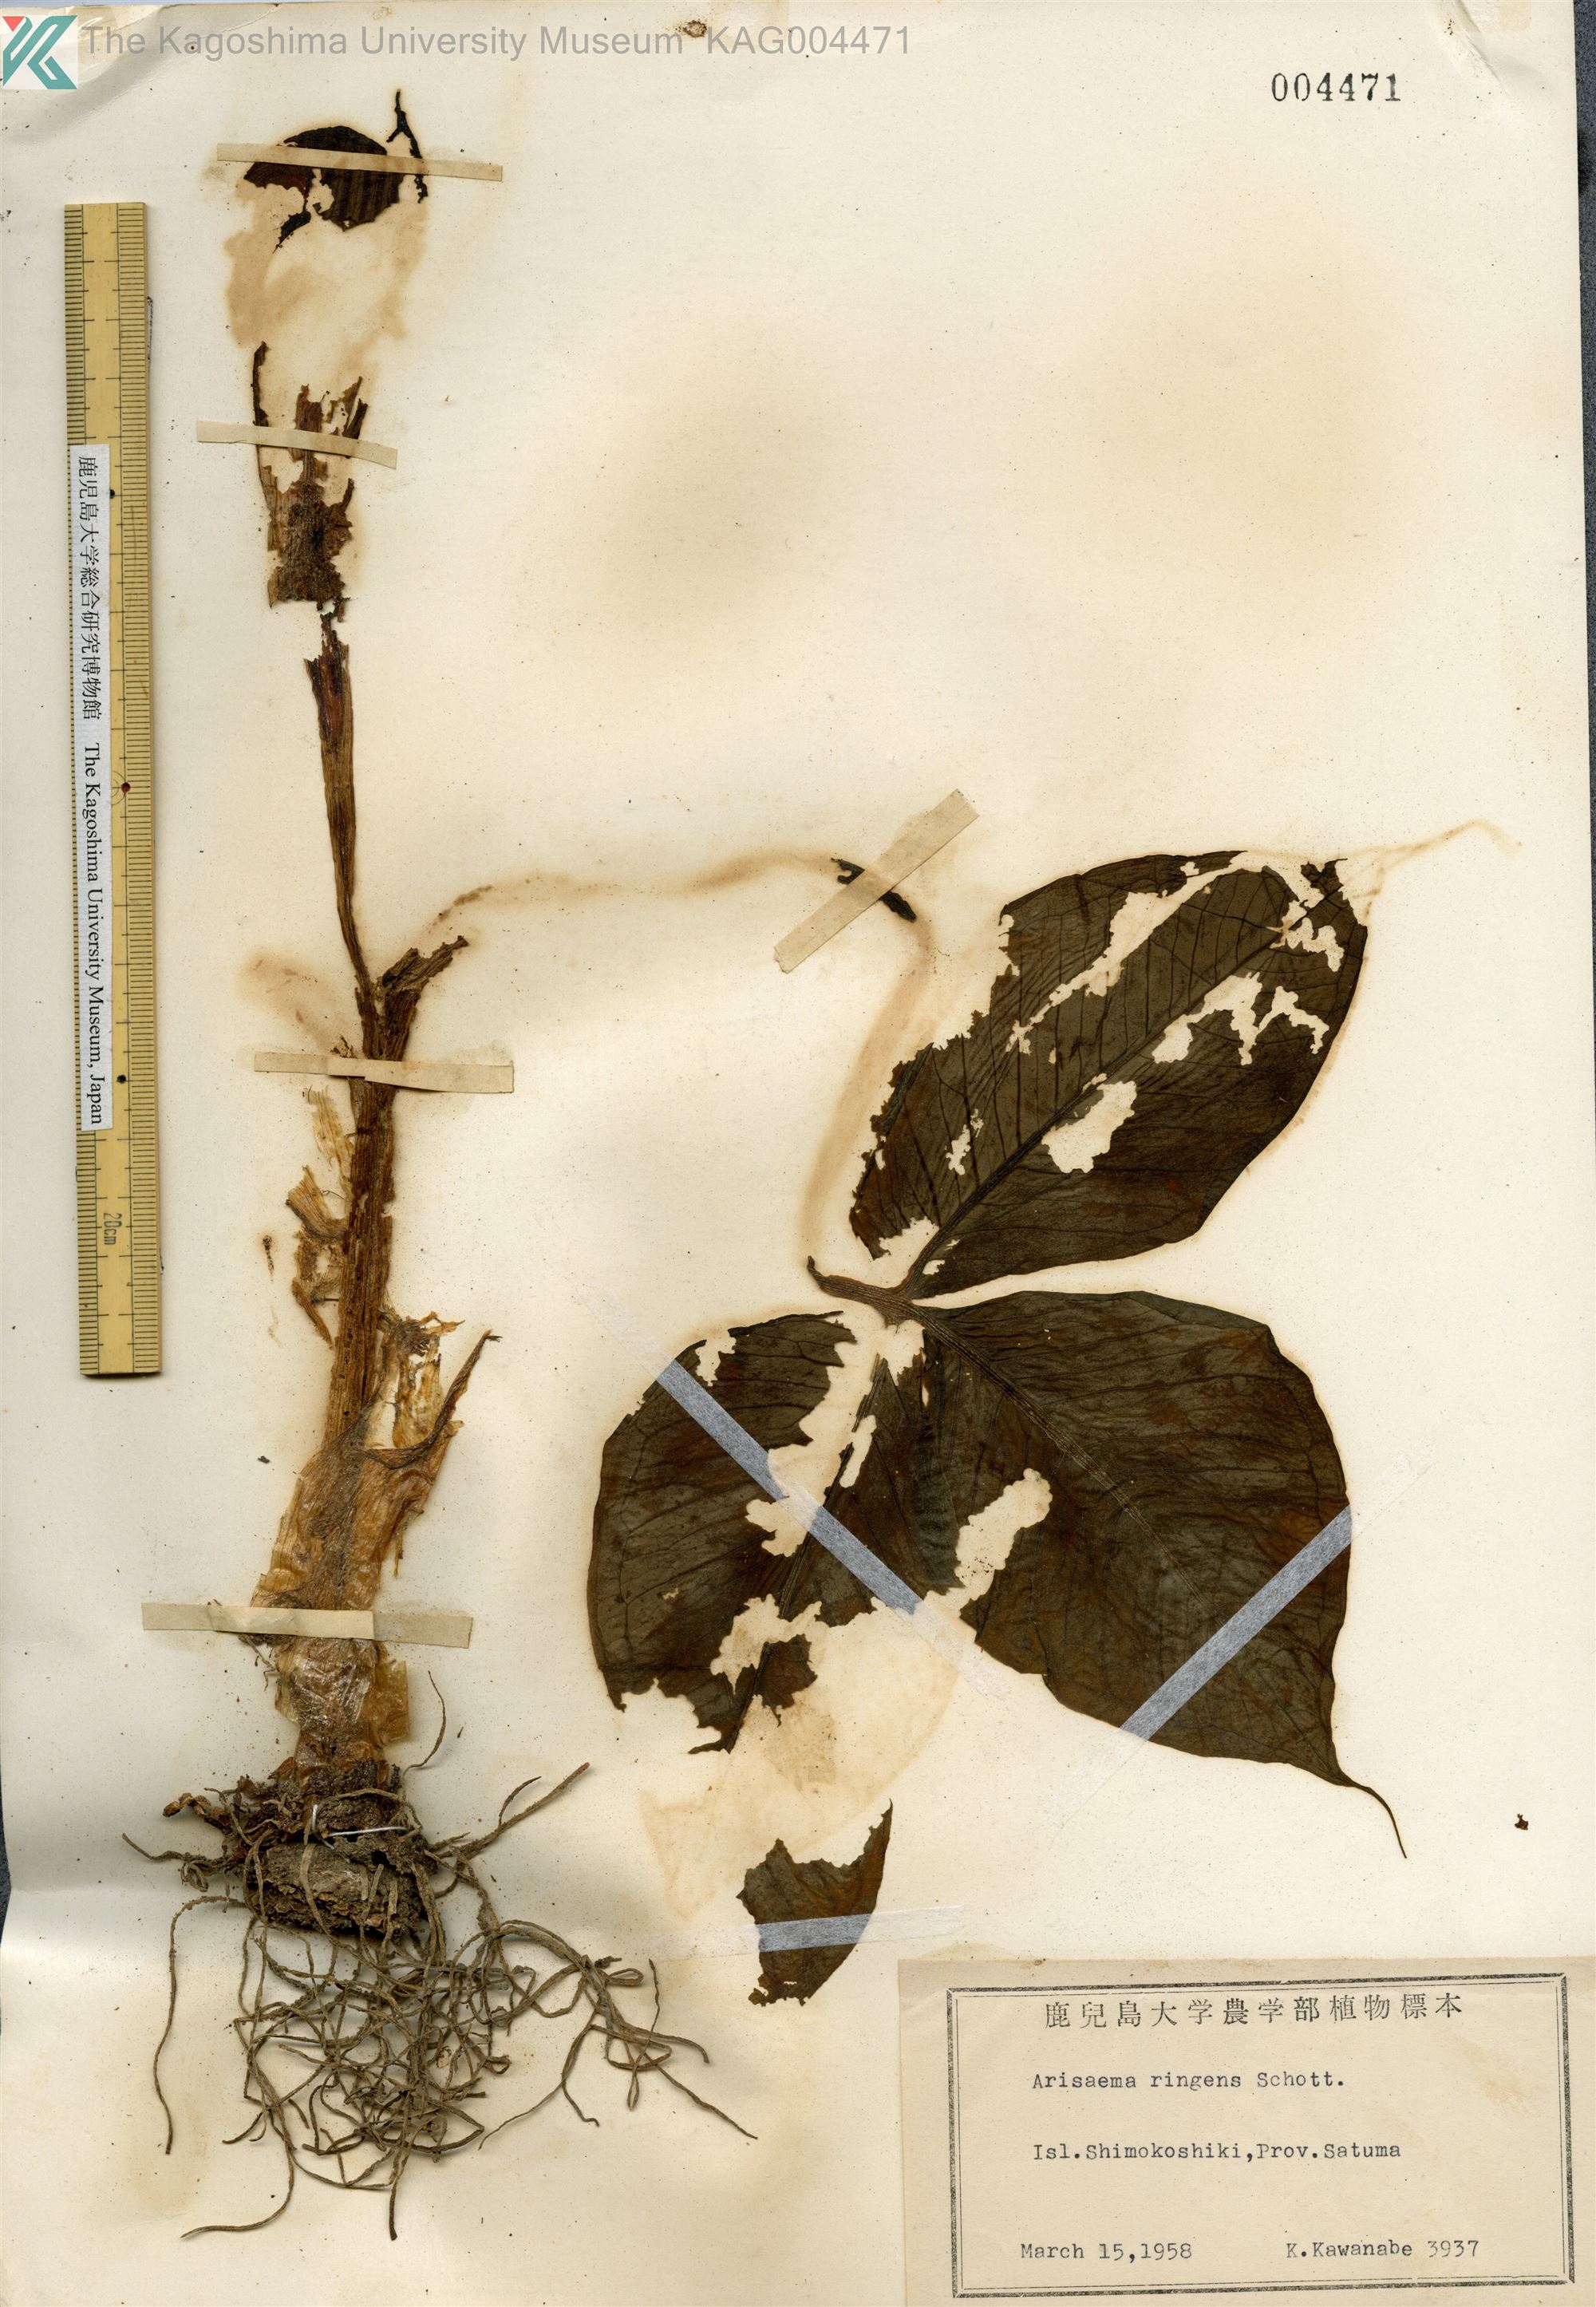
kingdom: Plantae
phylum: Tracheophyta
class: Liliopsida
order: Alismatales
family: Araceae
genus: Arisaema
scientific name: Arisaema ringens
